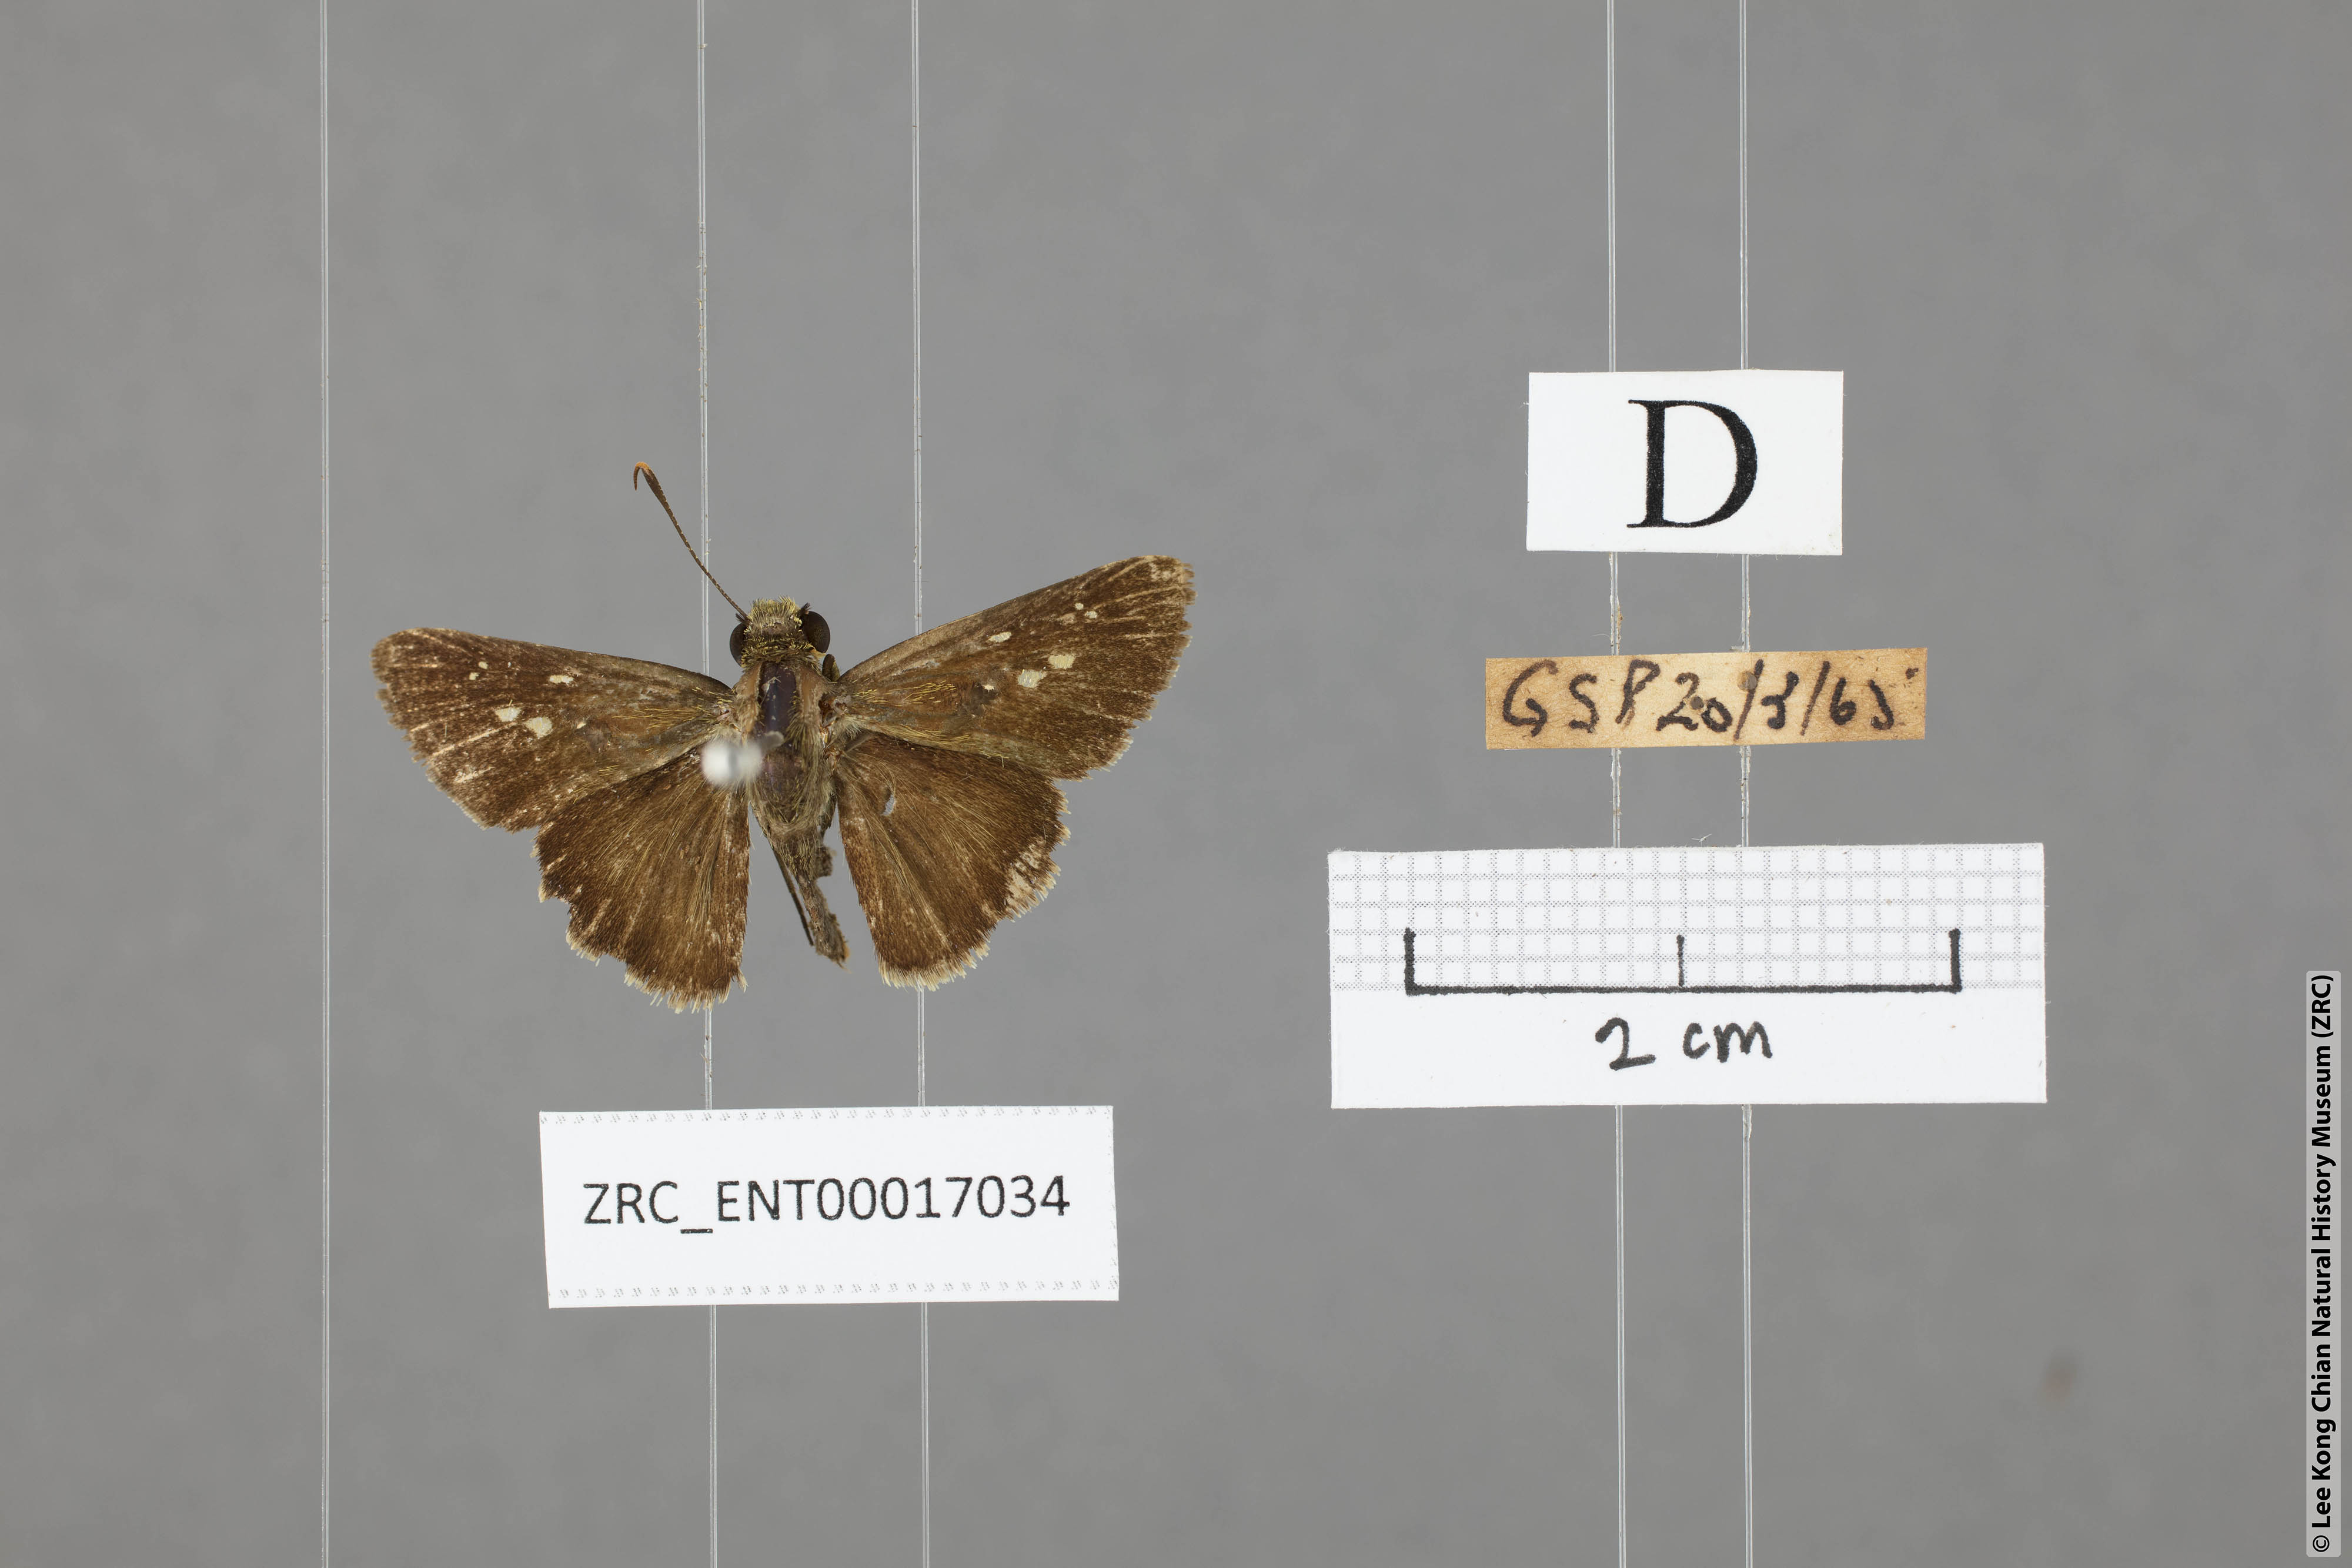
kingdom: Animalia
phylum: Arthropoda
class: Insecta
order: Lepidoptera
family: Hesperiidae
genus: Halpe
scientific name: Halpe pelethronix
